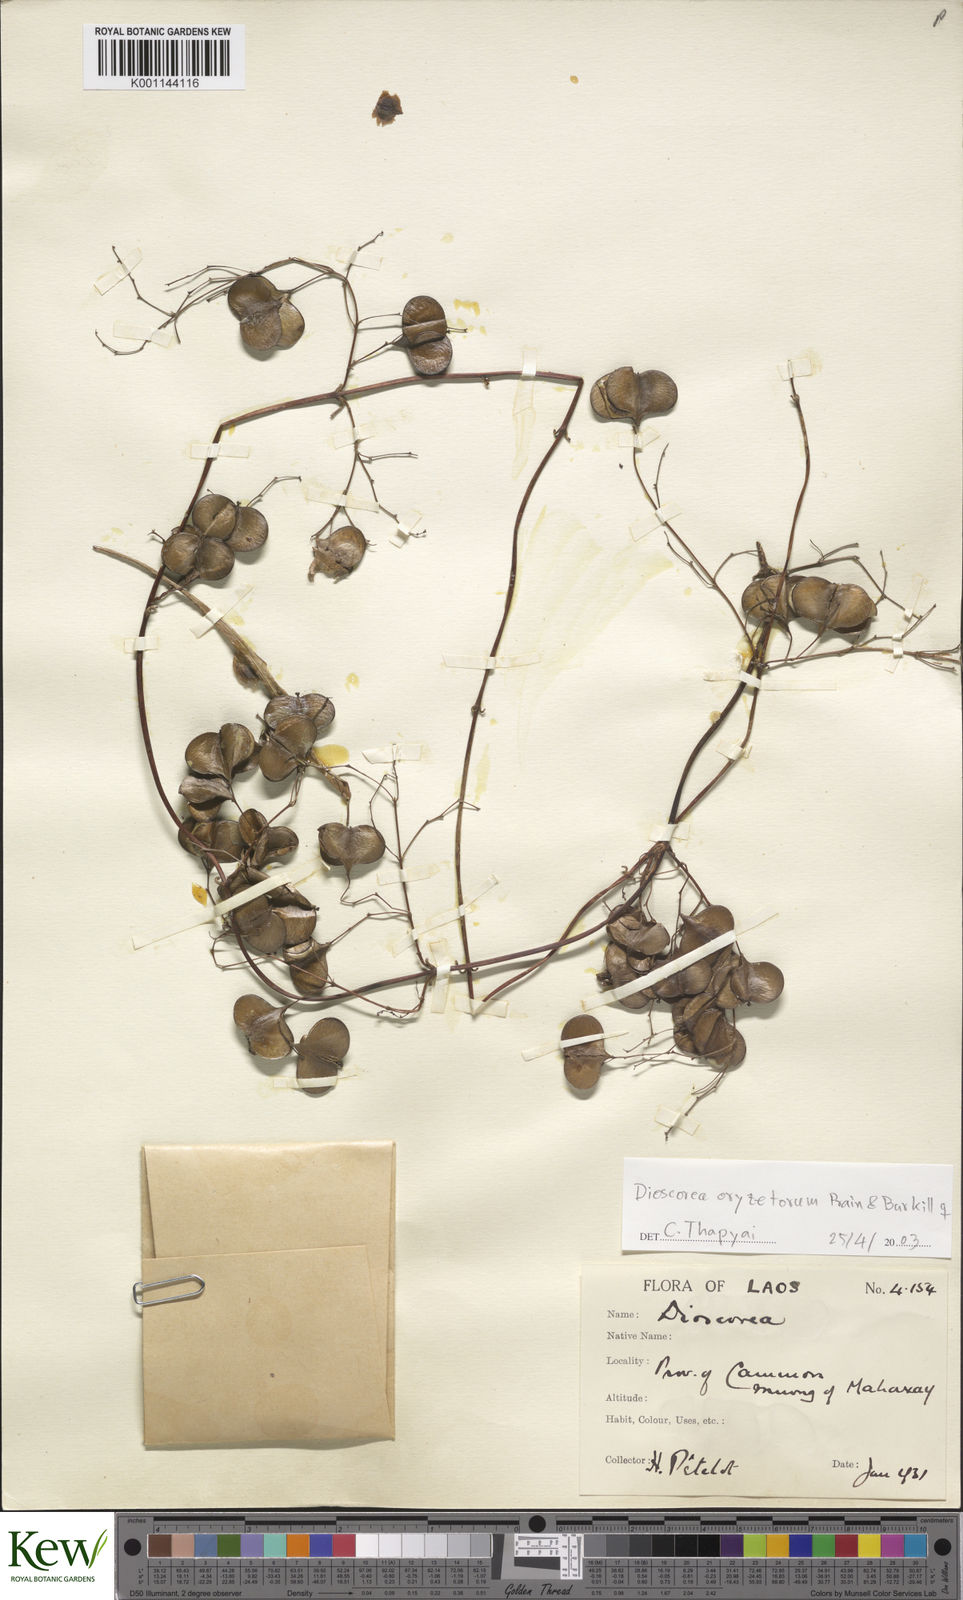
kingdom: Plantae
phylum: Tracheophyta
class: Liliopsida
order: Dioscoreales
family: Dioscoreaceae
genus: Dioscorea
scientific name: Dioscorea oryzetorum
